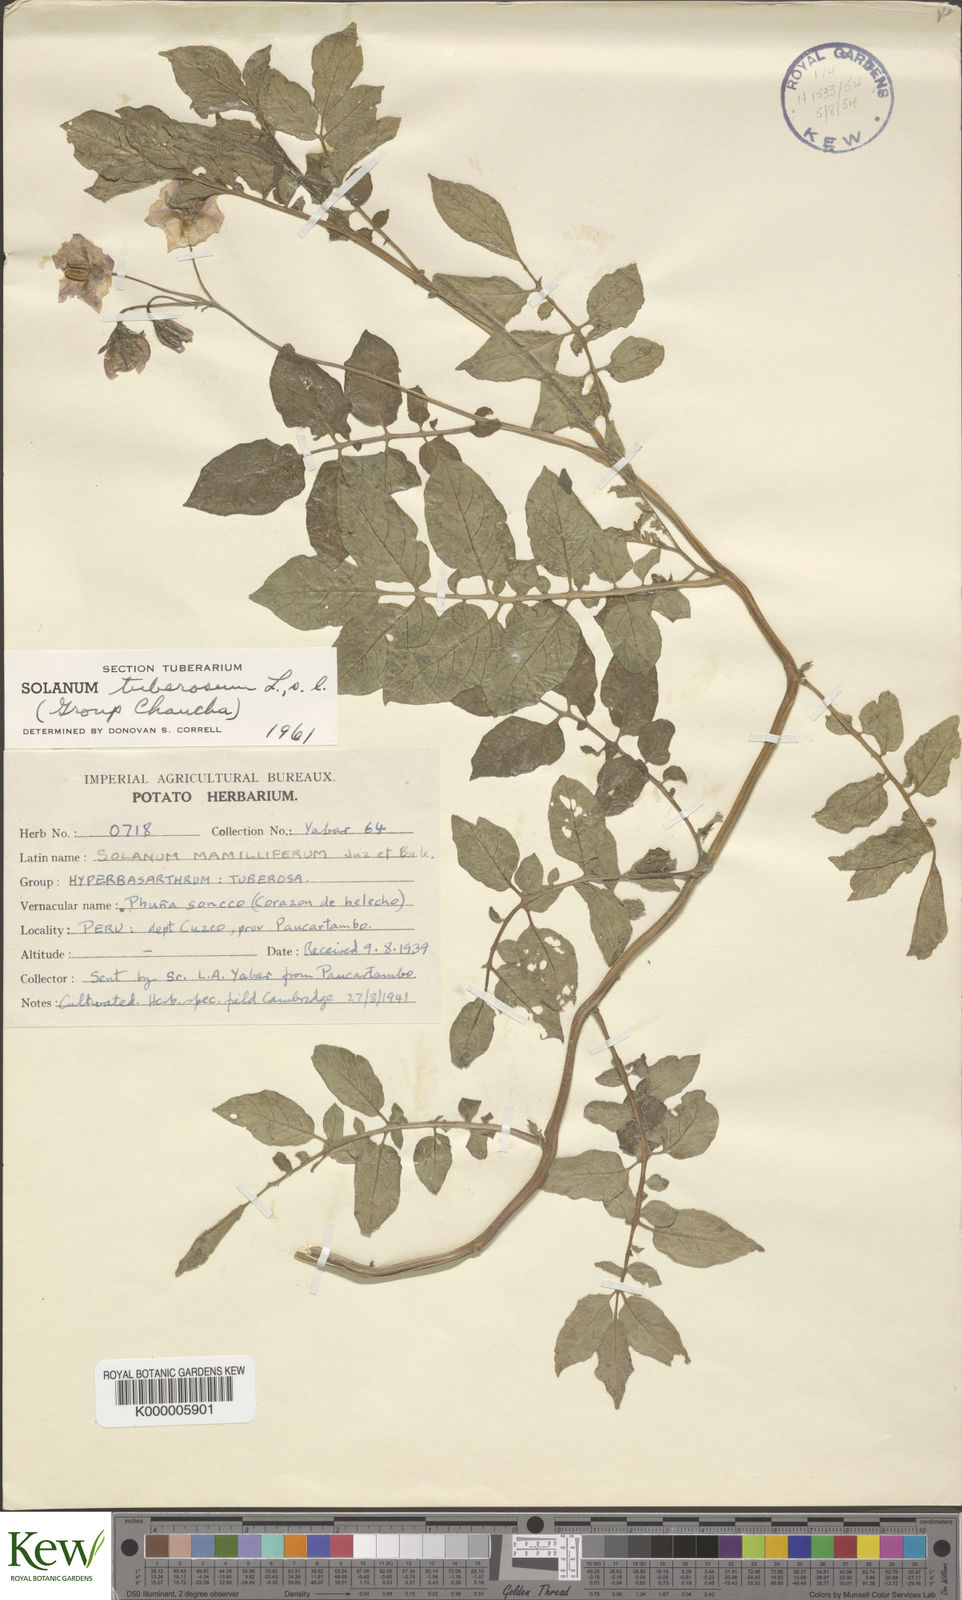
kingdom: Plantae
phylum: Tracheophyta
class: Magnoliopsida
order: Solanales
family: Solanaceae
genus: Solanum
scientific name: Solanum
